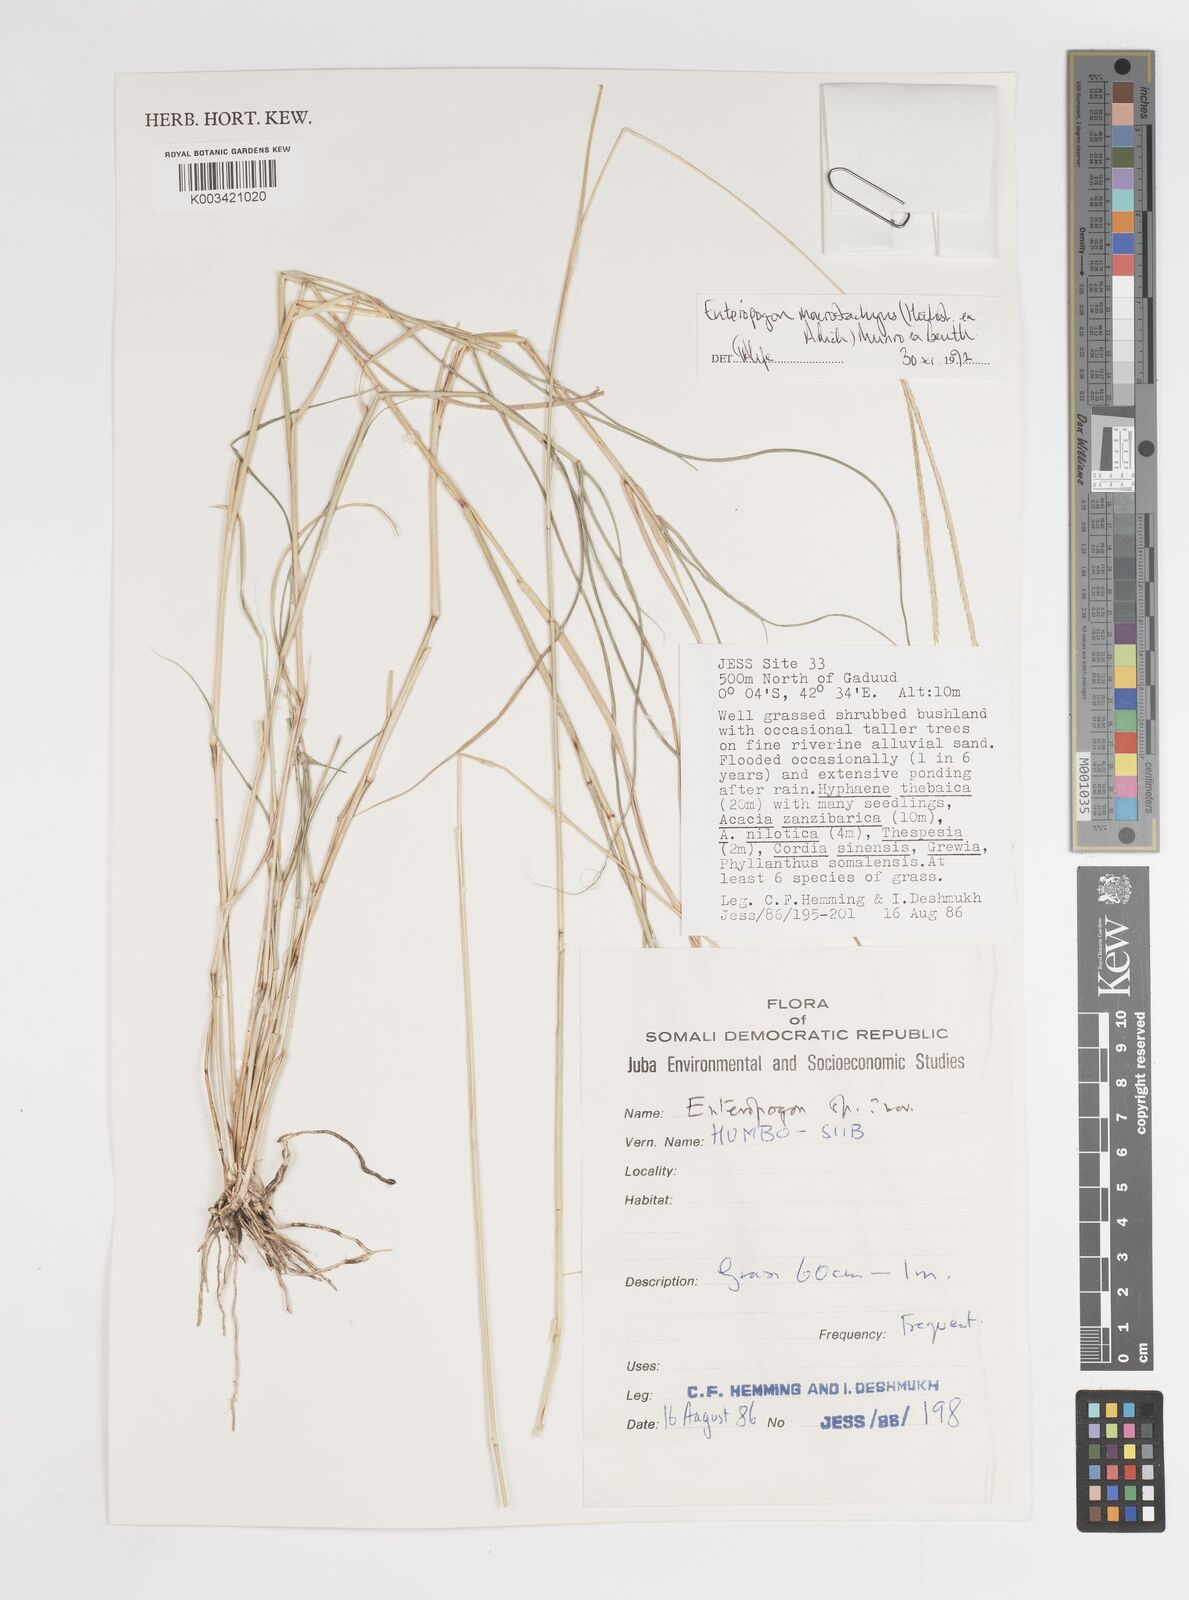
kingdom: Plantae
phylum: Tracheophyta
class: Liliopsida
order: Poales
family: Poaceae
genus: Enteropogon
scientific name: Enteropogon macrostachyus
